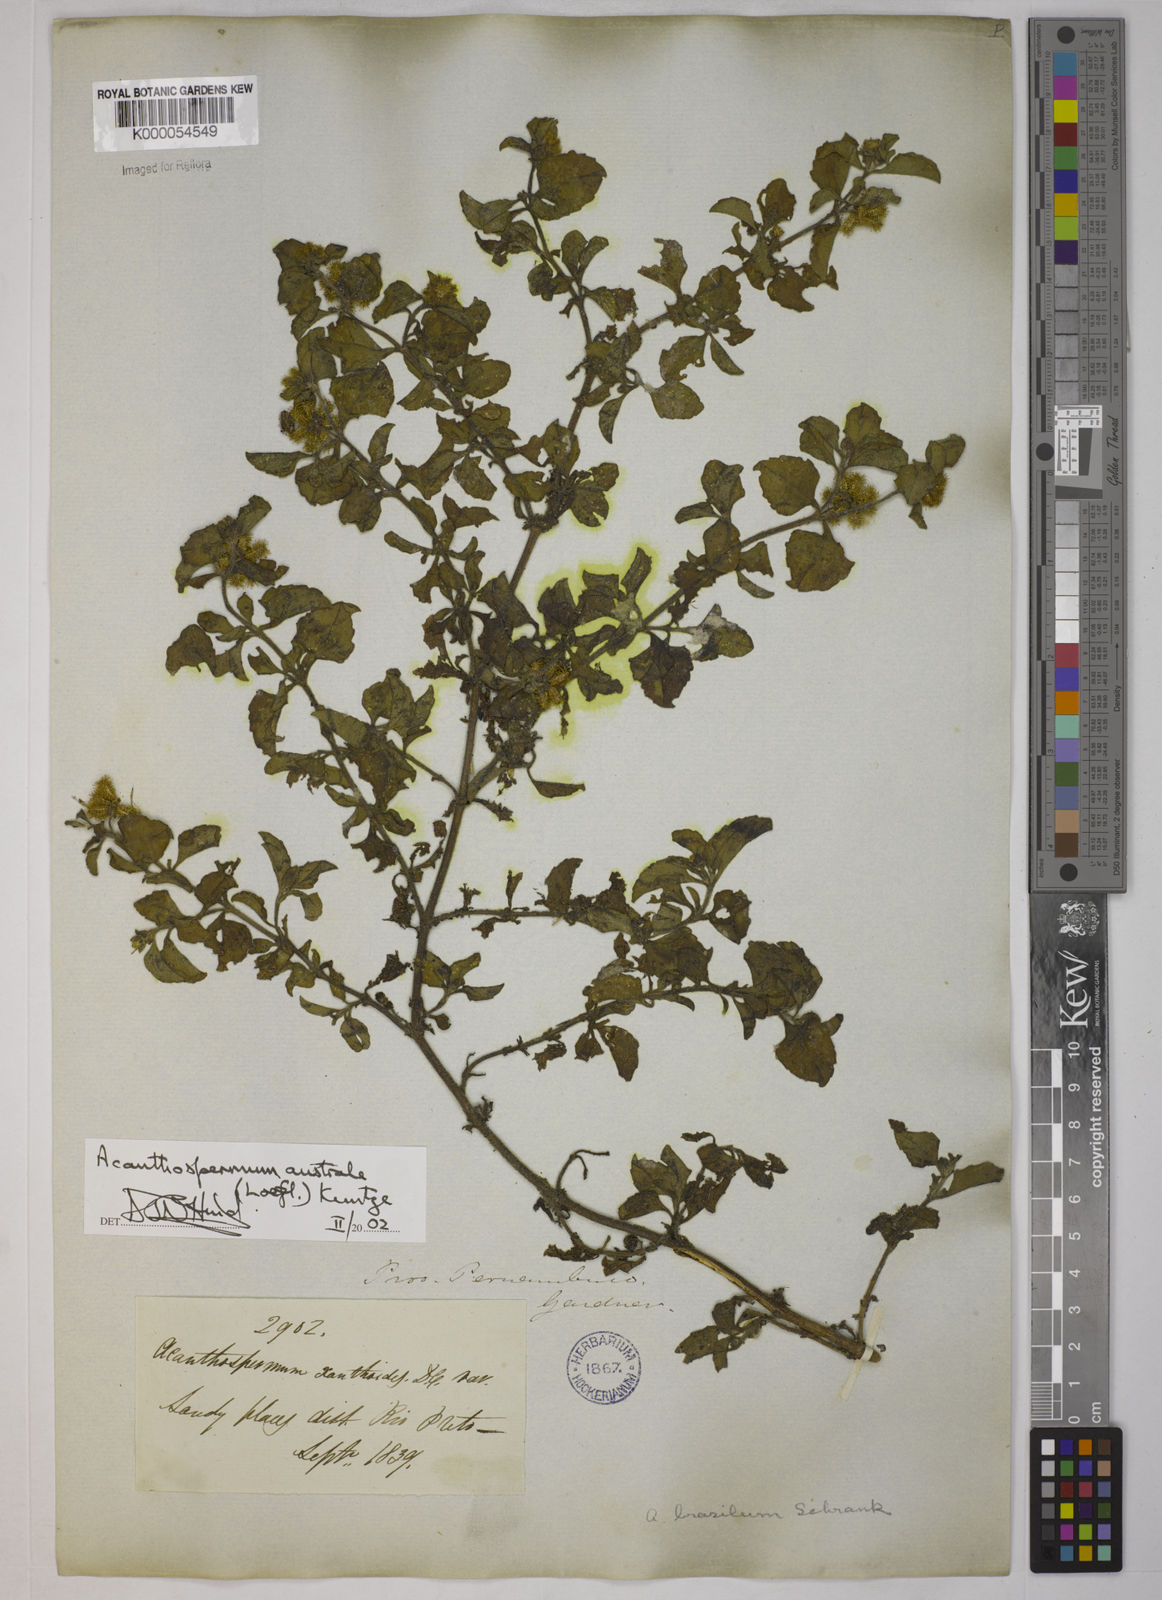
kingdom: Plantae
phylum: Tracheophyta
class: Magnoliopsida
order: Asterales
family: Asteraceae
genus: Acanthospermum
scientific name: Acanthospermum australe
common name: Paraguayan starbur
